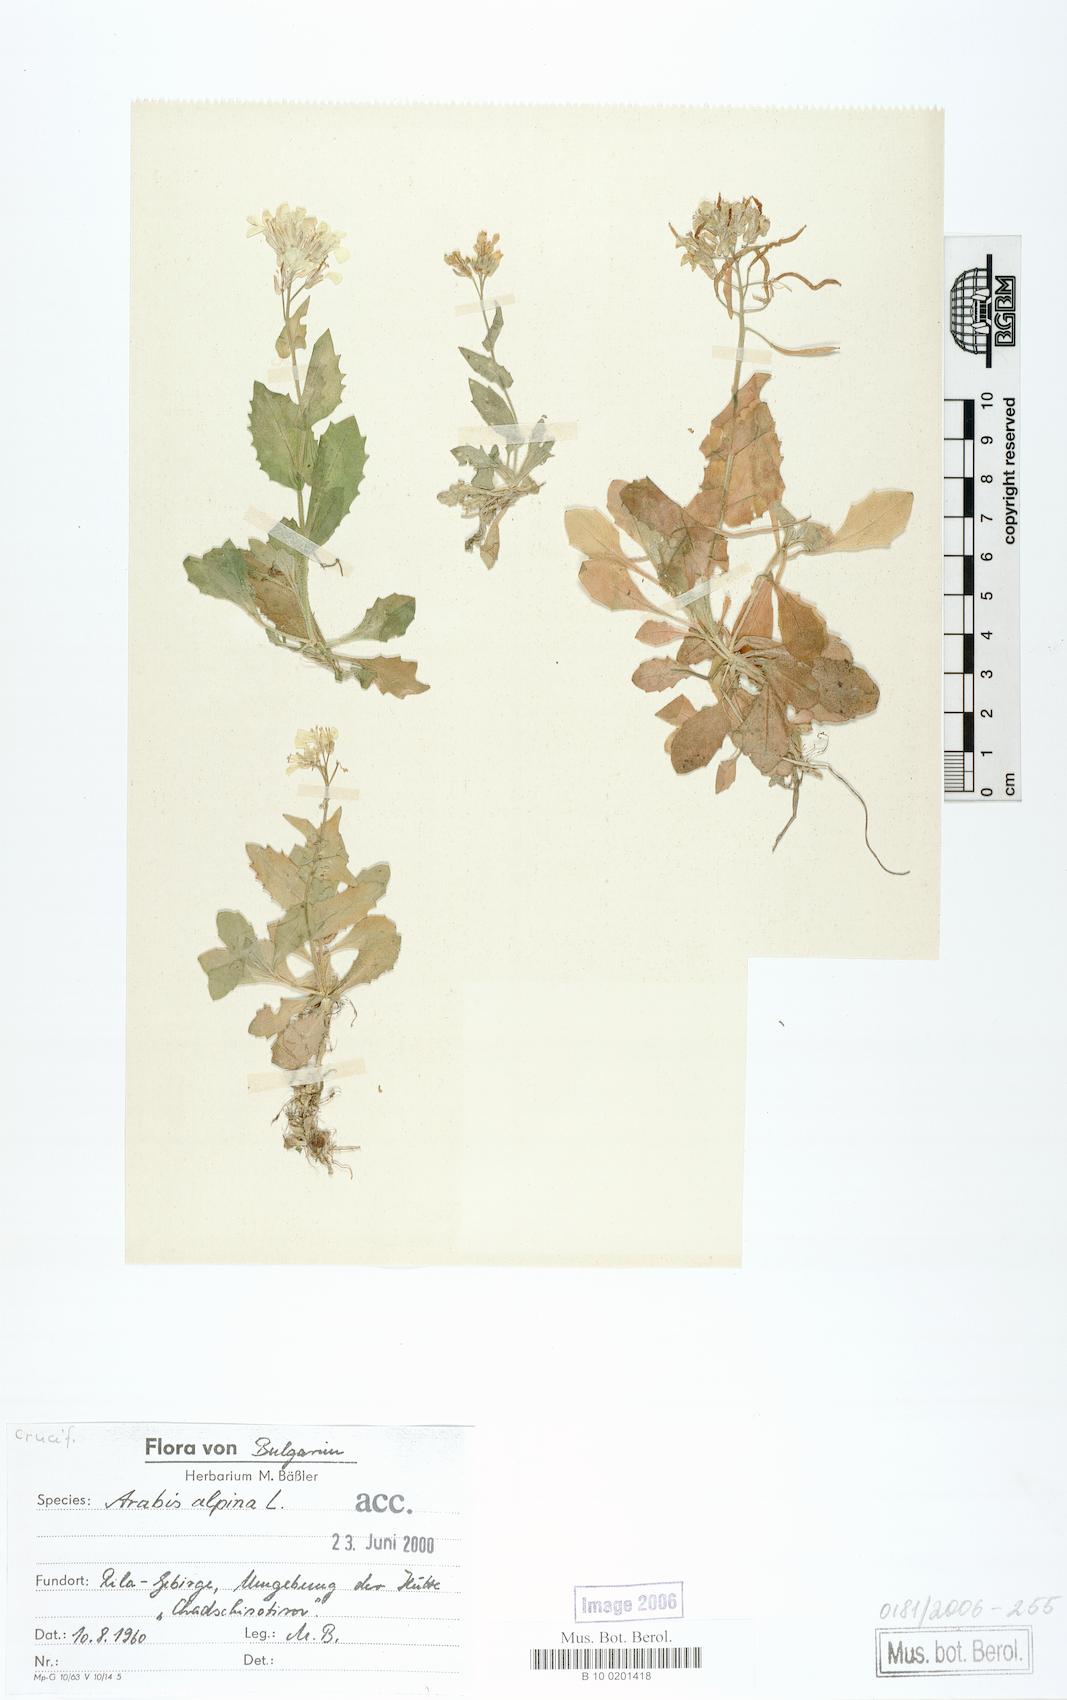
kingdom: Plantae
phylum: Tracheophyta
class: Magnoliopsida
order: Brassicales
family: Brassicaceae
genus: Arabis
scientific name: Arabis alpina
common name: Alpine rock-cress
